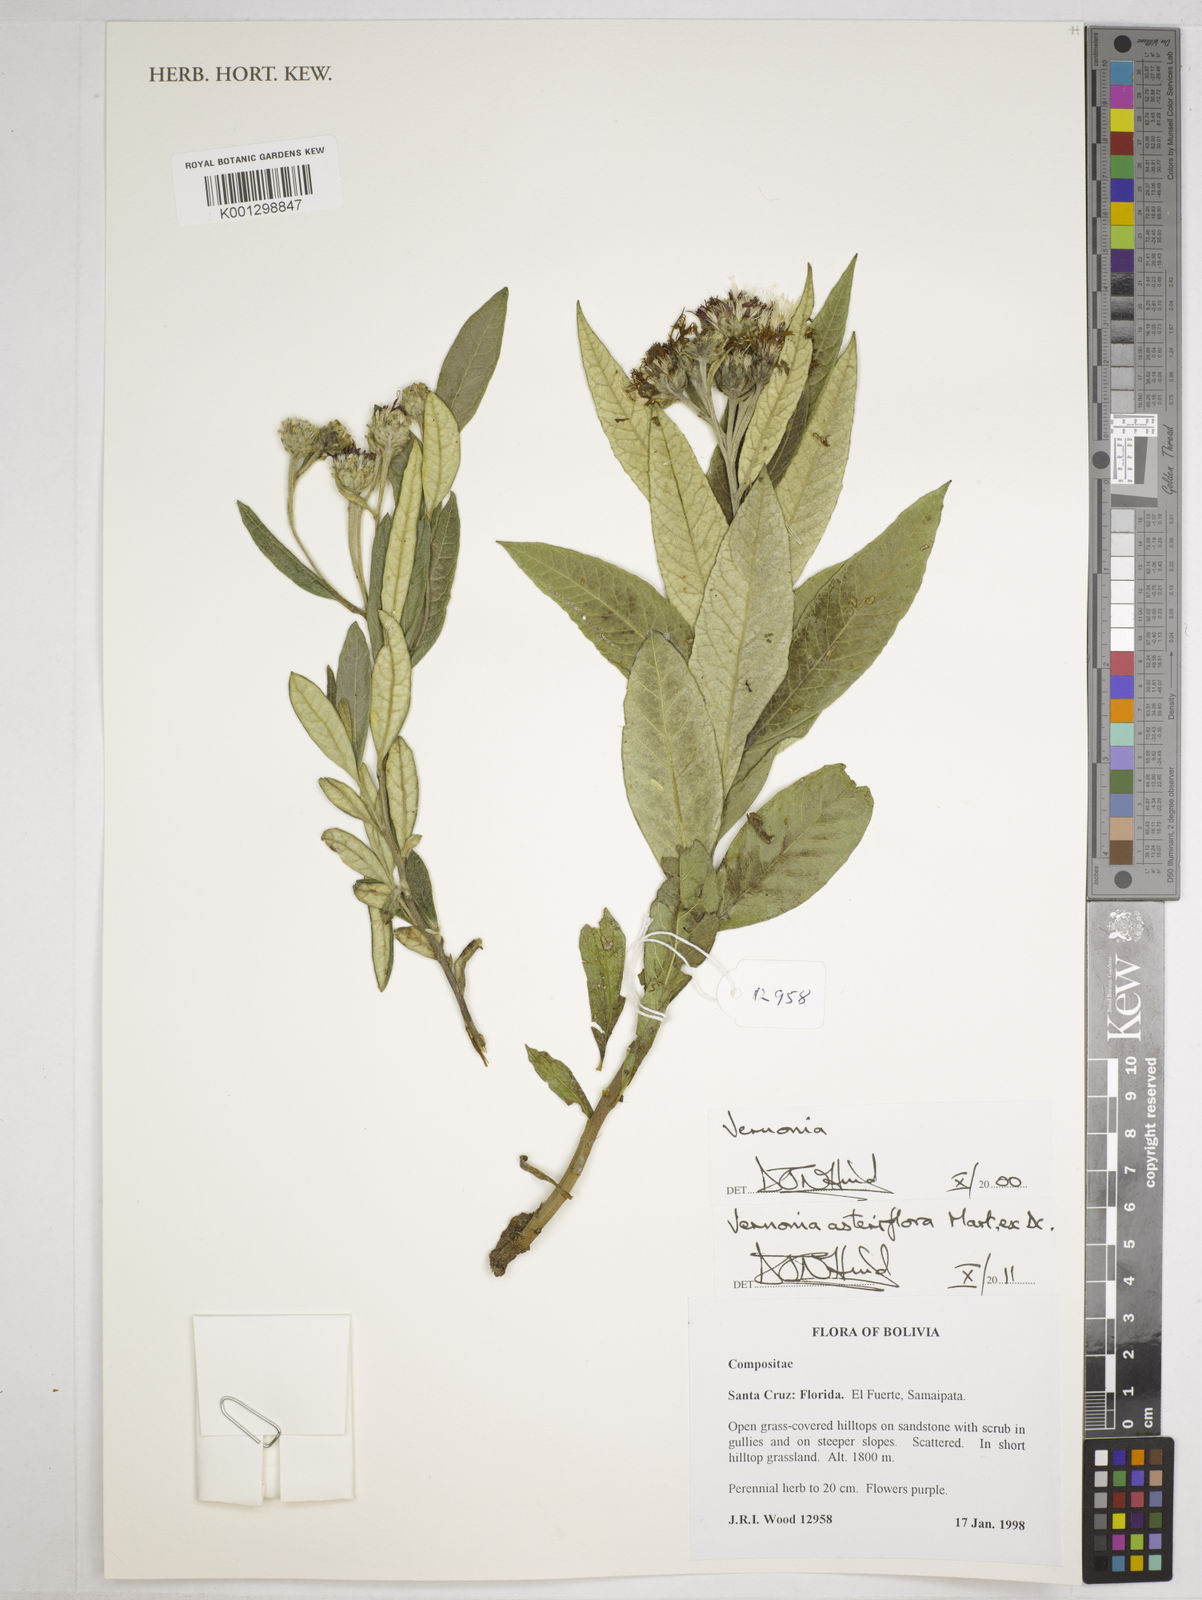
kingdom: Plantae
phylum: Tracheophyta
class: Magnoliopsida
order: Asterales
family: Asteraceae
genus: Lessingianthus
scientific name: Lessingianthus asteriflorus
